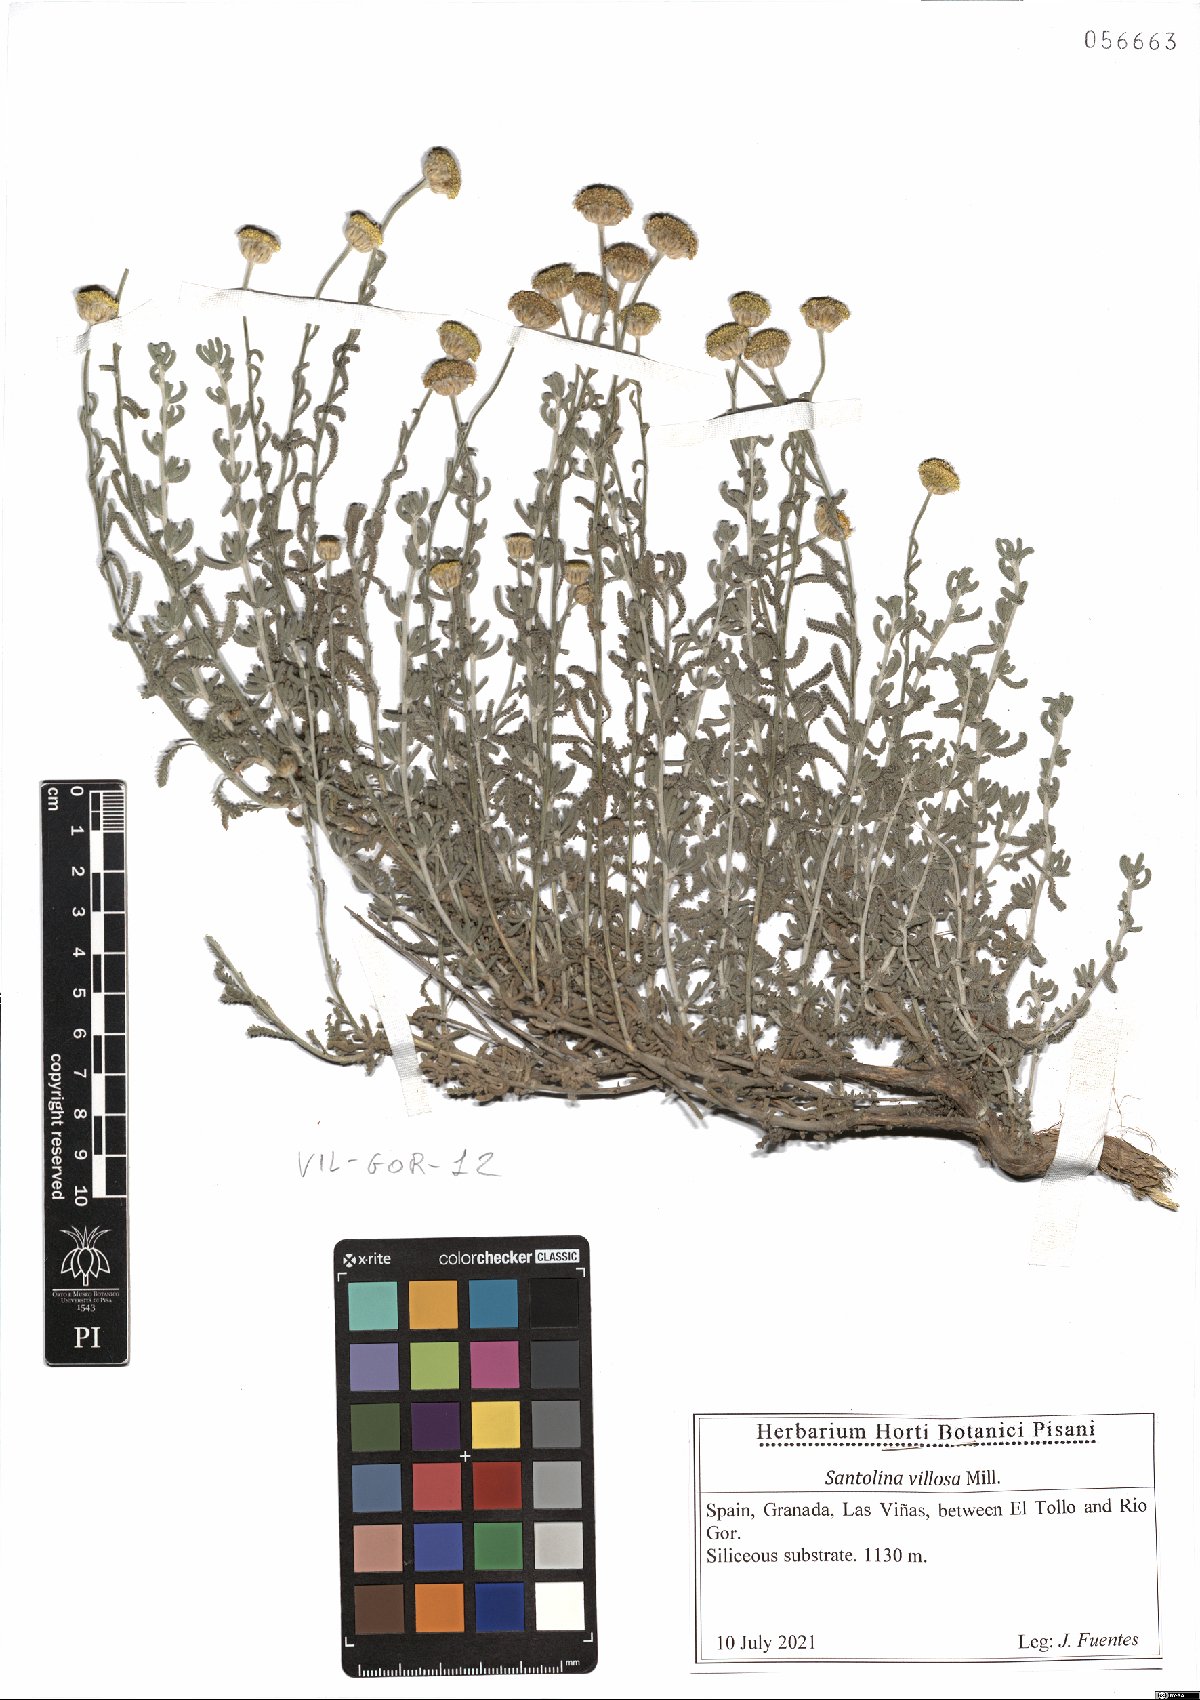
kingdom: Plantae
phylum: Tracheophyta
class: Magnoliopsida
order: Asterales
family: Asteraceae
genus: Santolina
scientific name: Santolina chamaecyparissus
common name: Lavender-cotton
